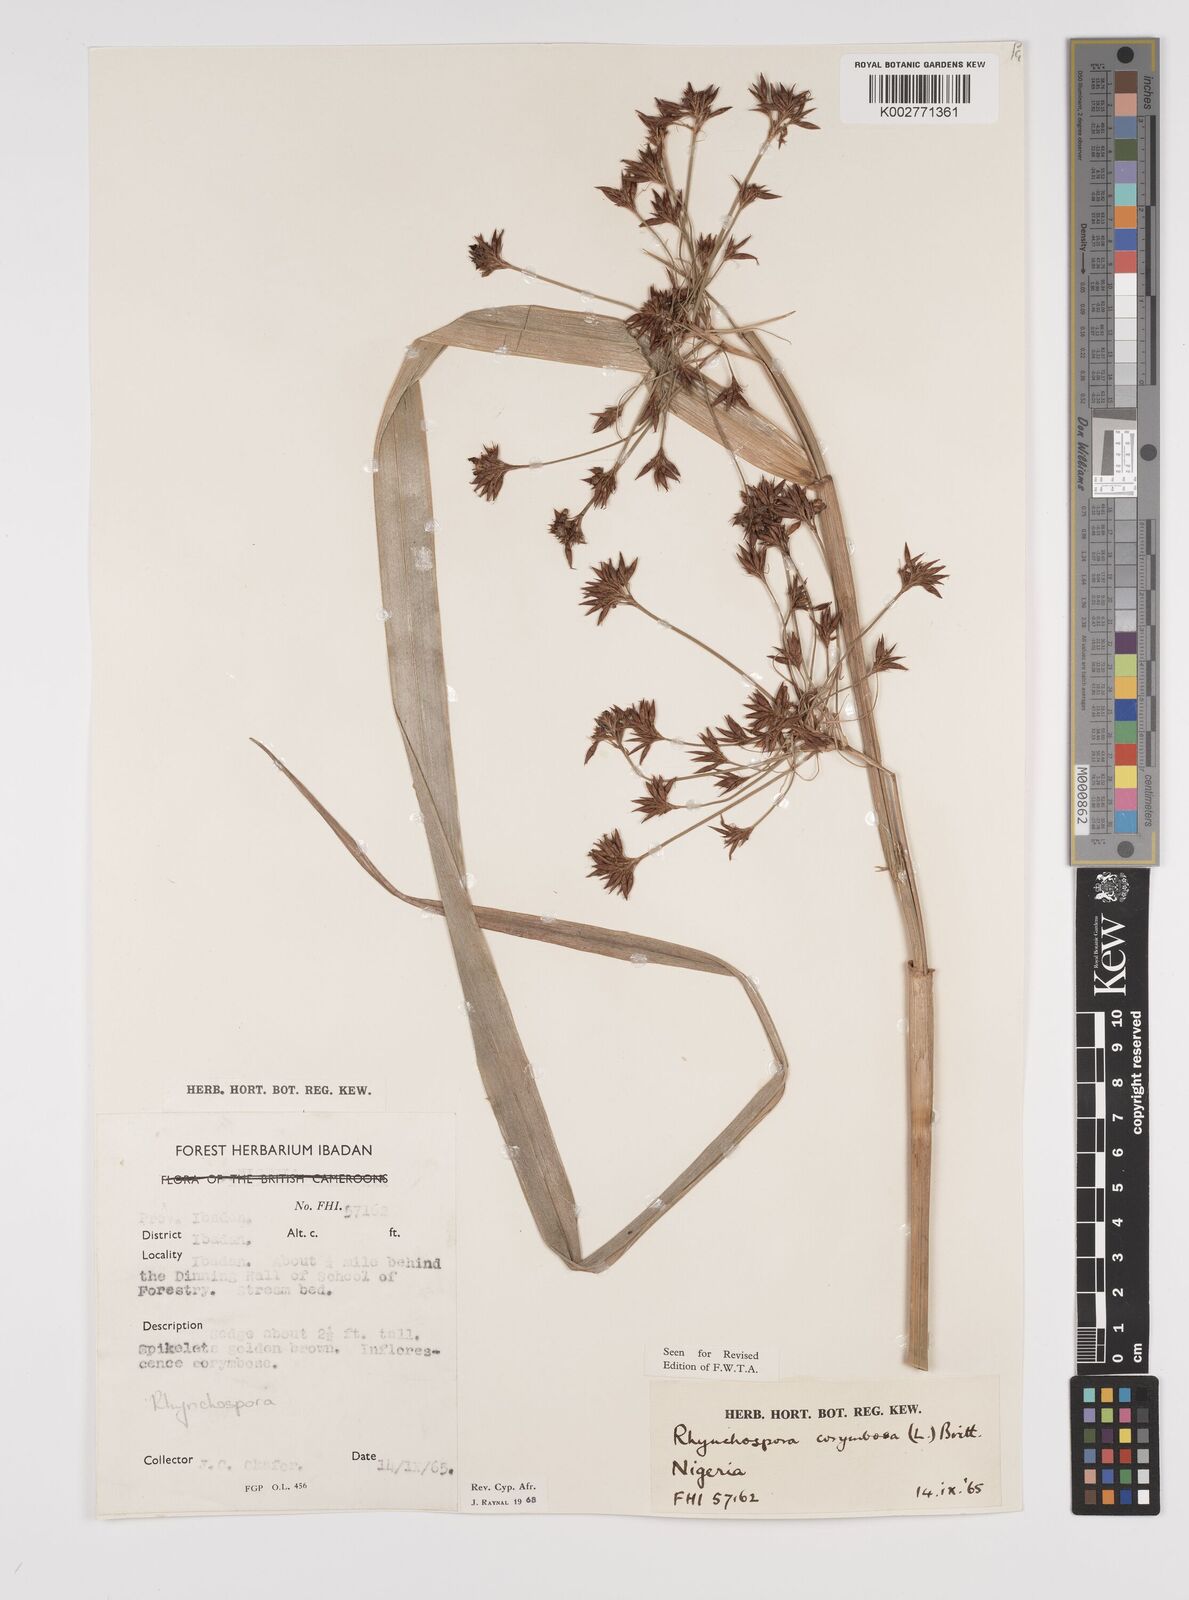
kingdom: Plantae
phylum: Tracheophyta
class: Liliopsida
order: Poales
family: Cyperaceae
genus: Rhynchospora
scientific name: Rhynchospora corymbosa
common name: Golden beak sedge
